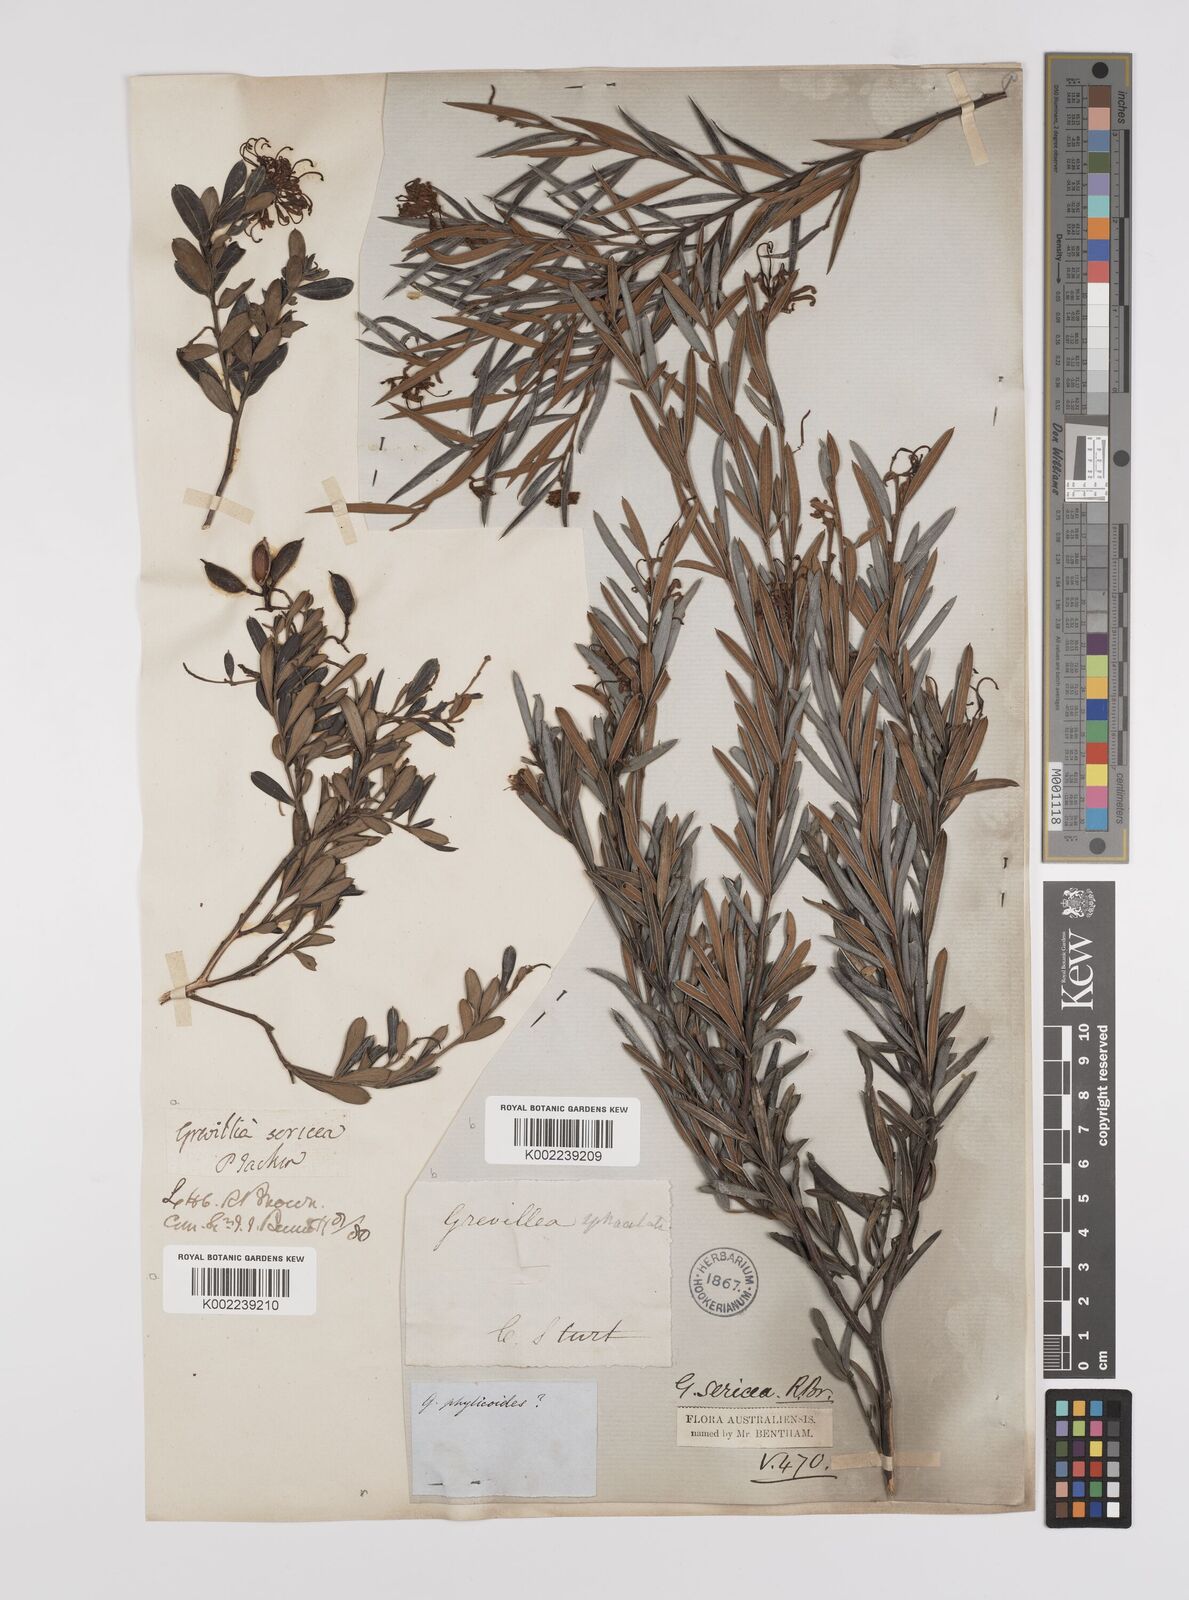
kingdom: Plantae
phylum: Tracheophyta
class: Magnoliopsida
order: Proteales
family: Proteaceae
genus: Grevillea
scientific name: Grevillea sericea
